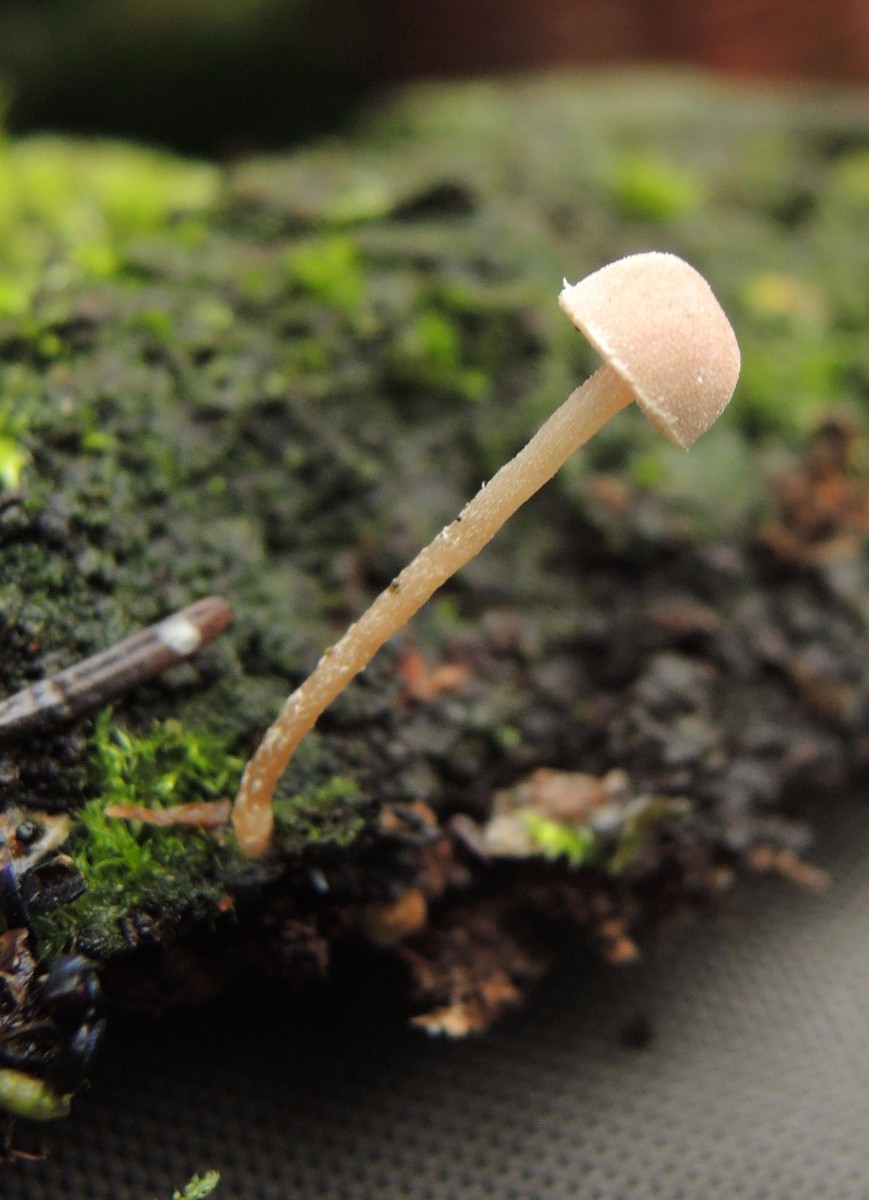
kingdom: Fungi
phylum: Basidiomycota
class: Agaricomycetes
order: Agaricales
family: Tubariaceae
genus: Flammulaster
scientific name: Flammulaster carpophilus
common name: blegrosa grynskælhat
